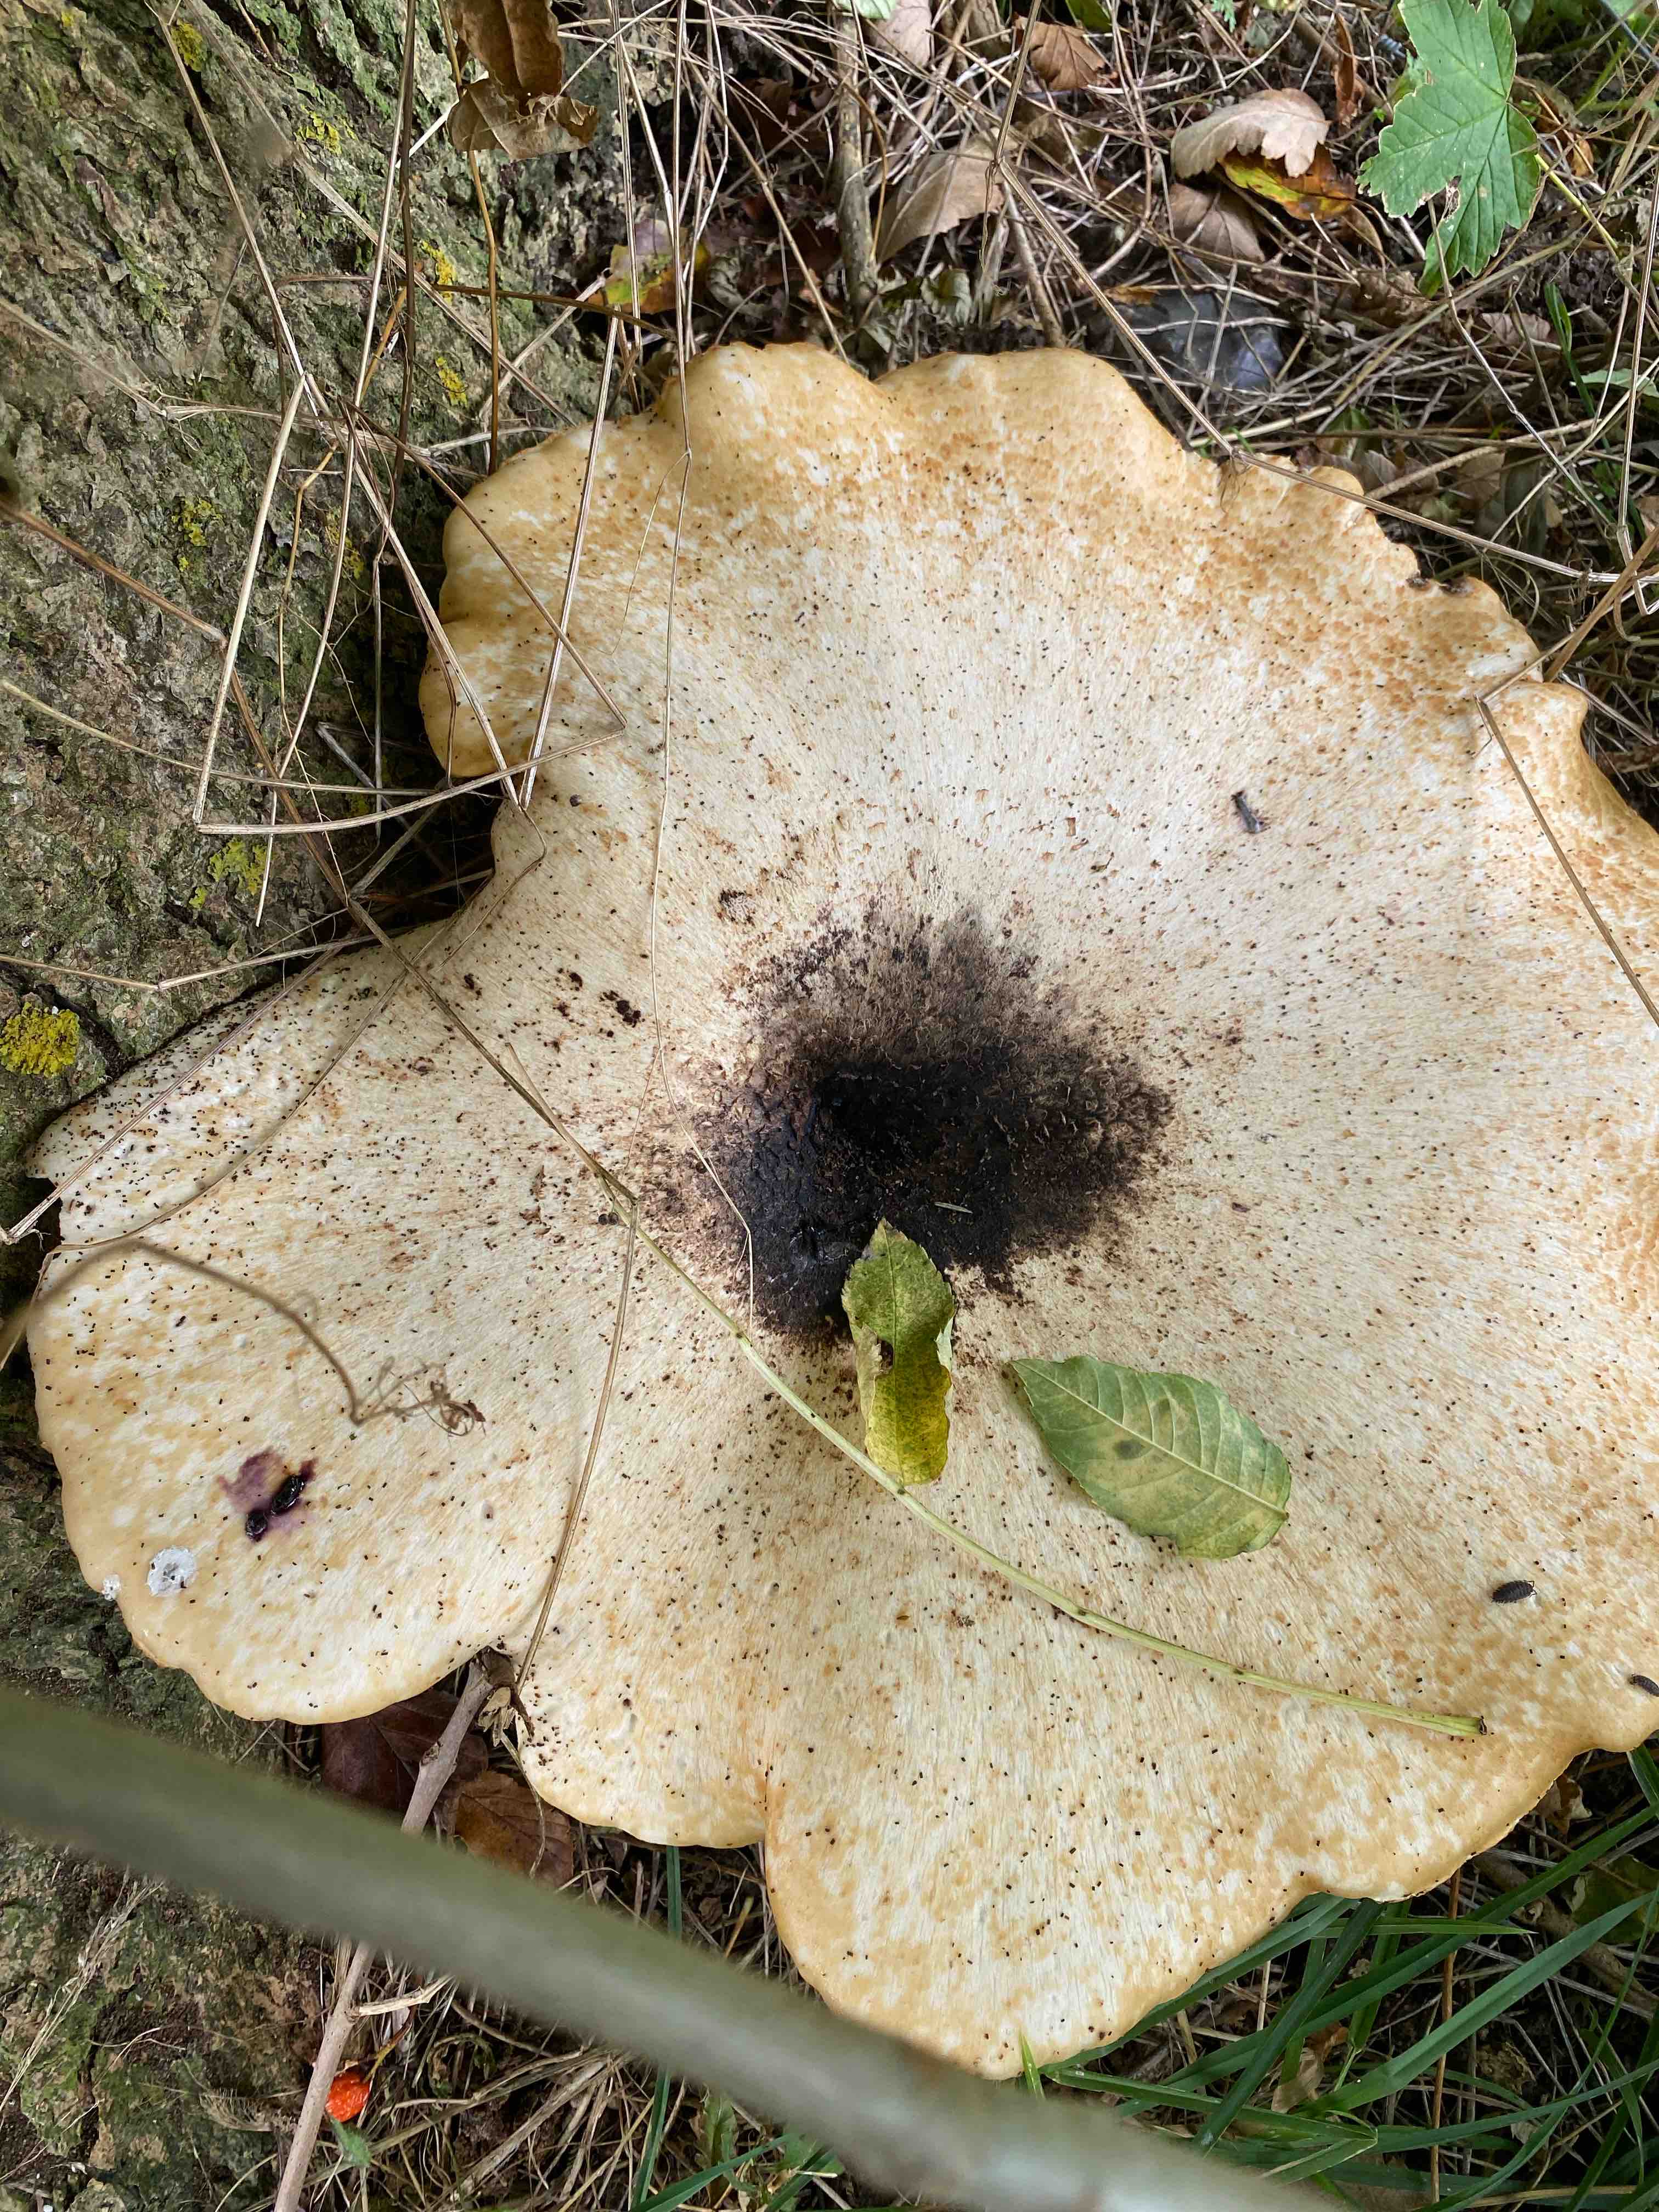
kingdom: Fungi
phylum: Basidiomycota
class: Agaricomycetes
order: Polyporales
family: Polyporaceae
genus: Cerioporus
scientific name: Cerioporus squamosus
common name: skællet stilkporesvamp
